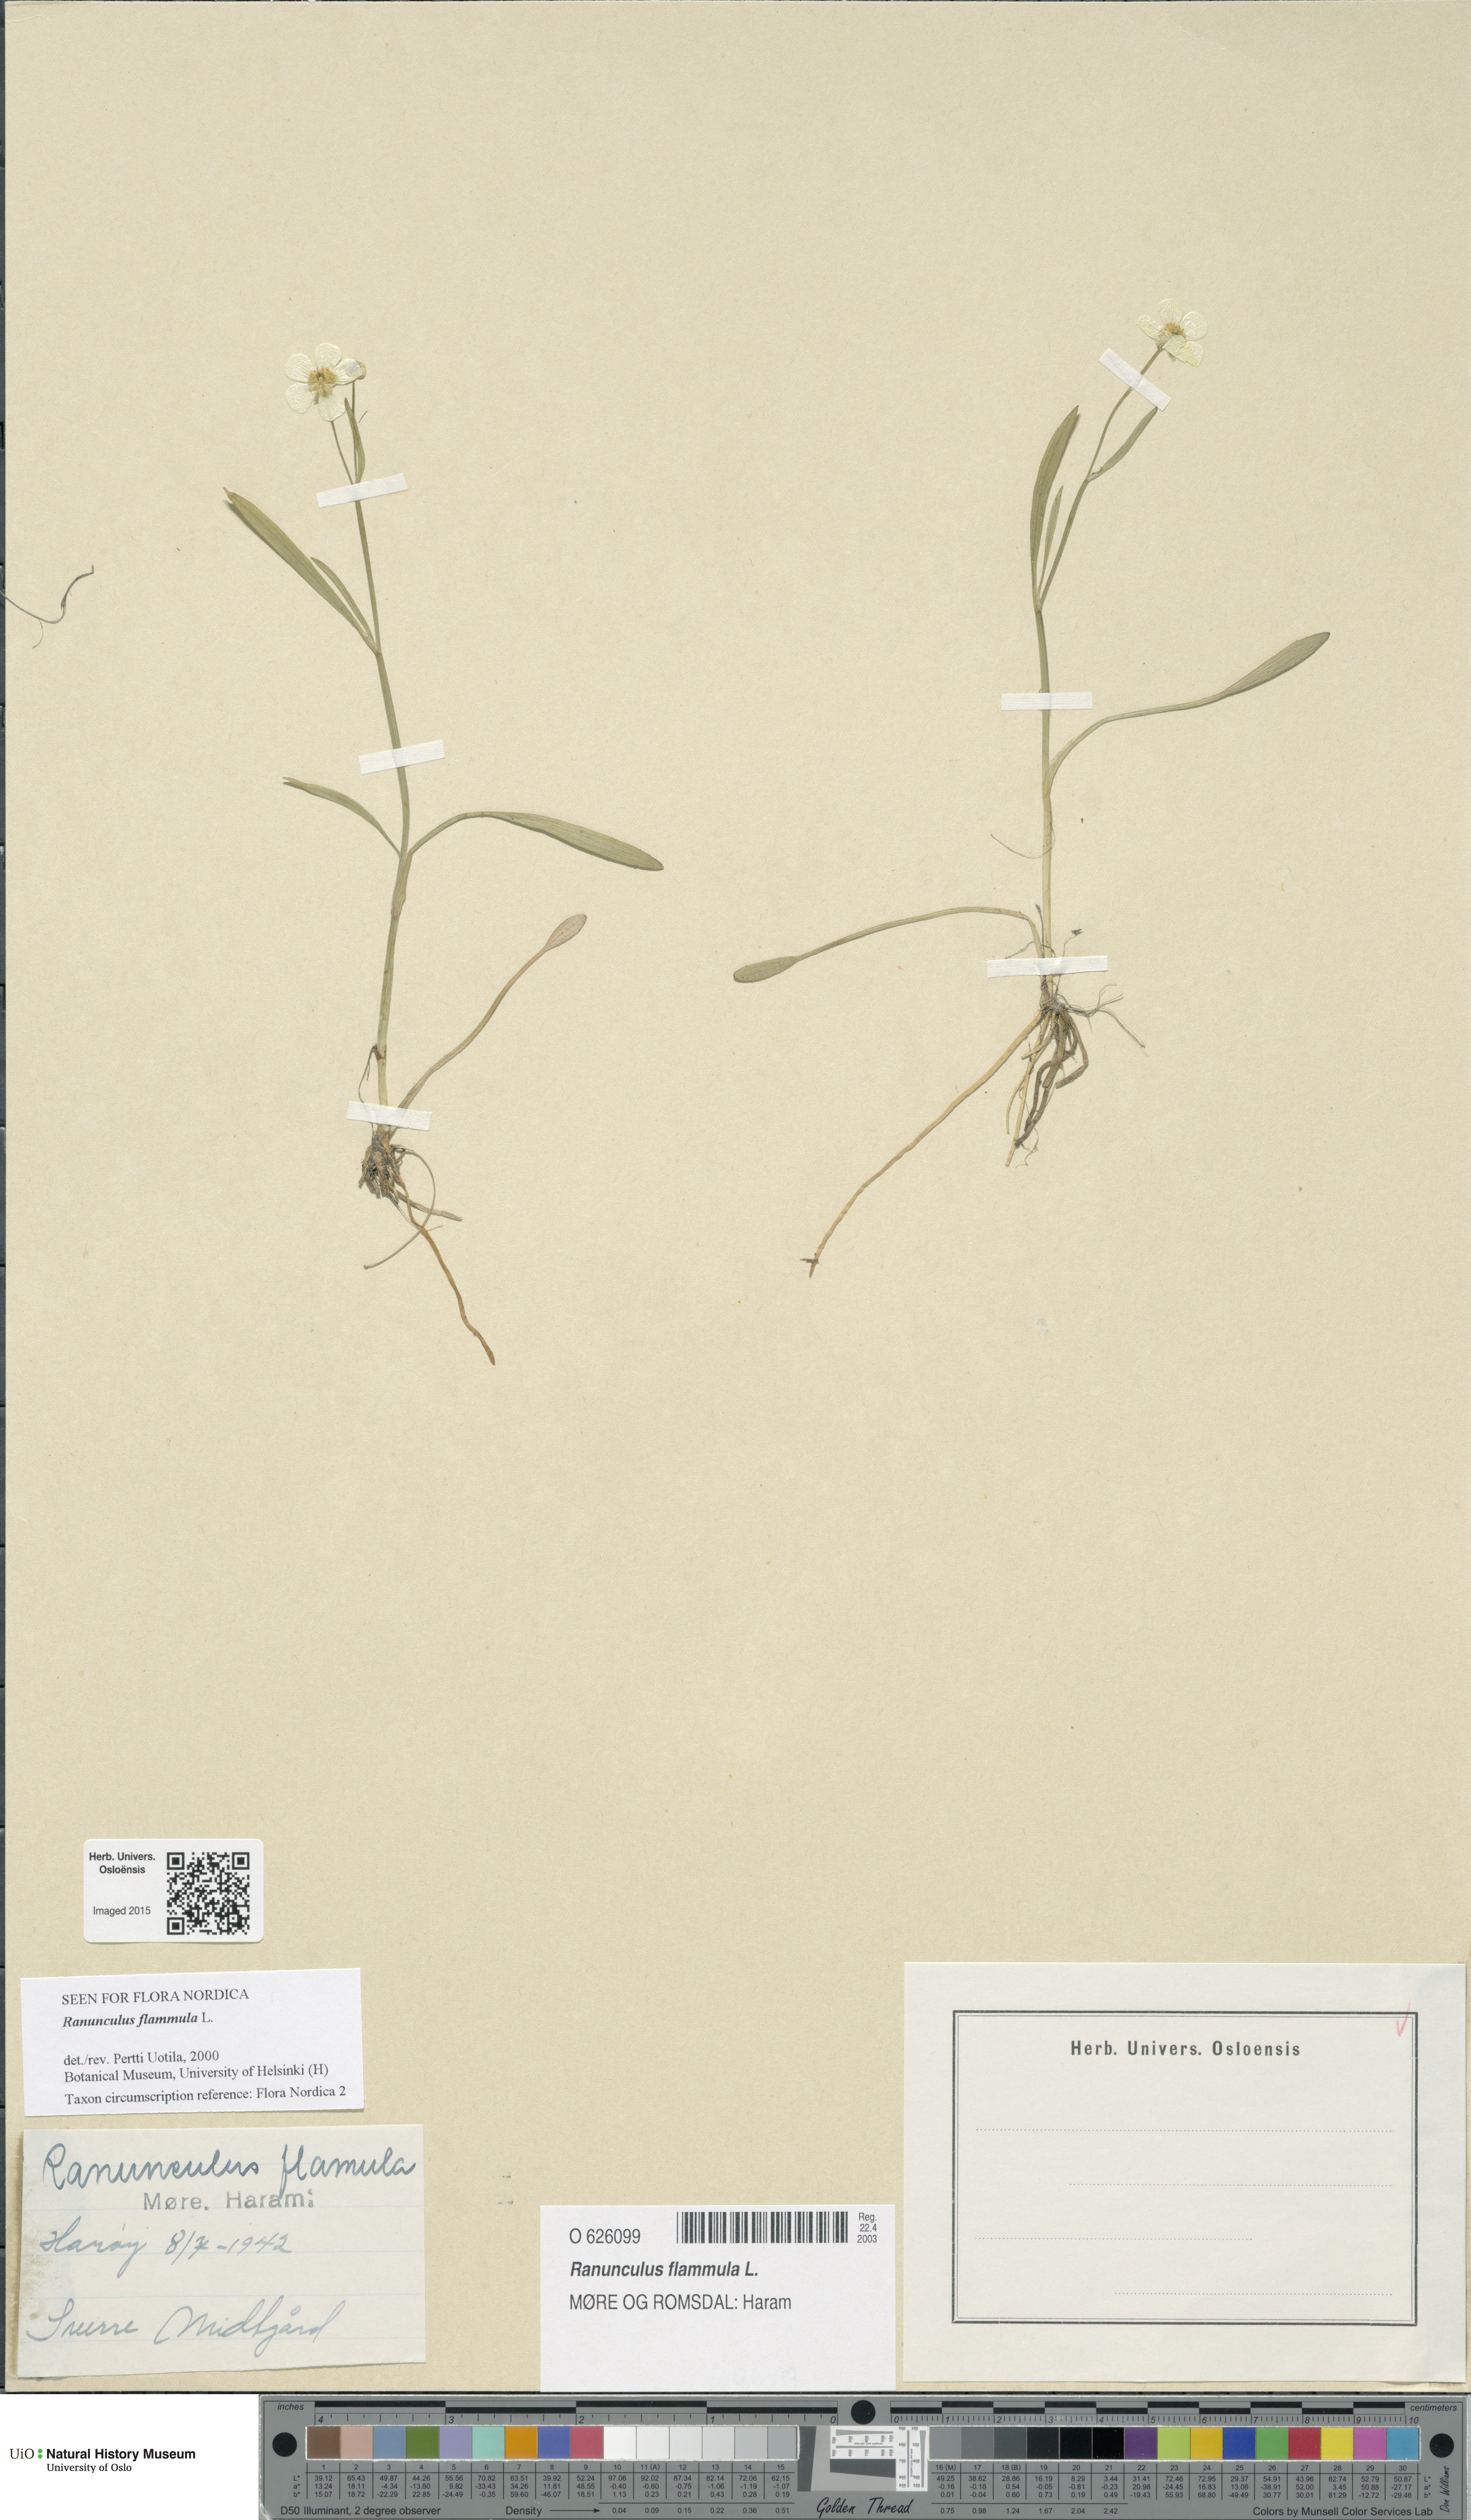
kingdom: Plantae
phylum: Tracheophyta
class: Magnoliopsida
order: Ranunculales
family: Ranunculaceae
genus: Ranunculus
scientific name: Ranunculus flammula
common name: Lesser spearwort
